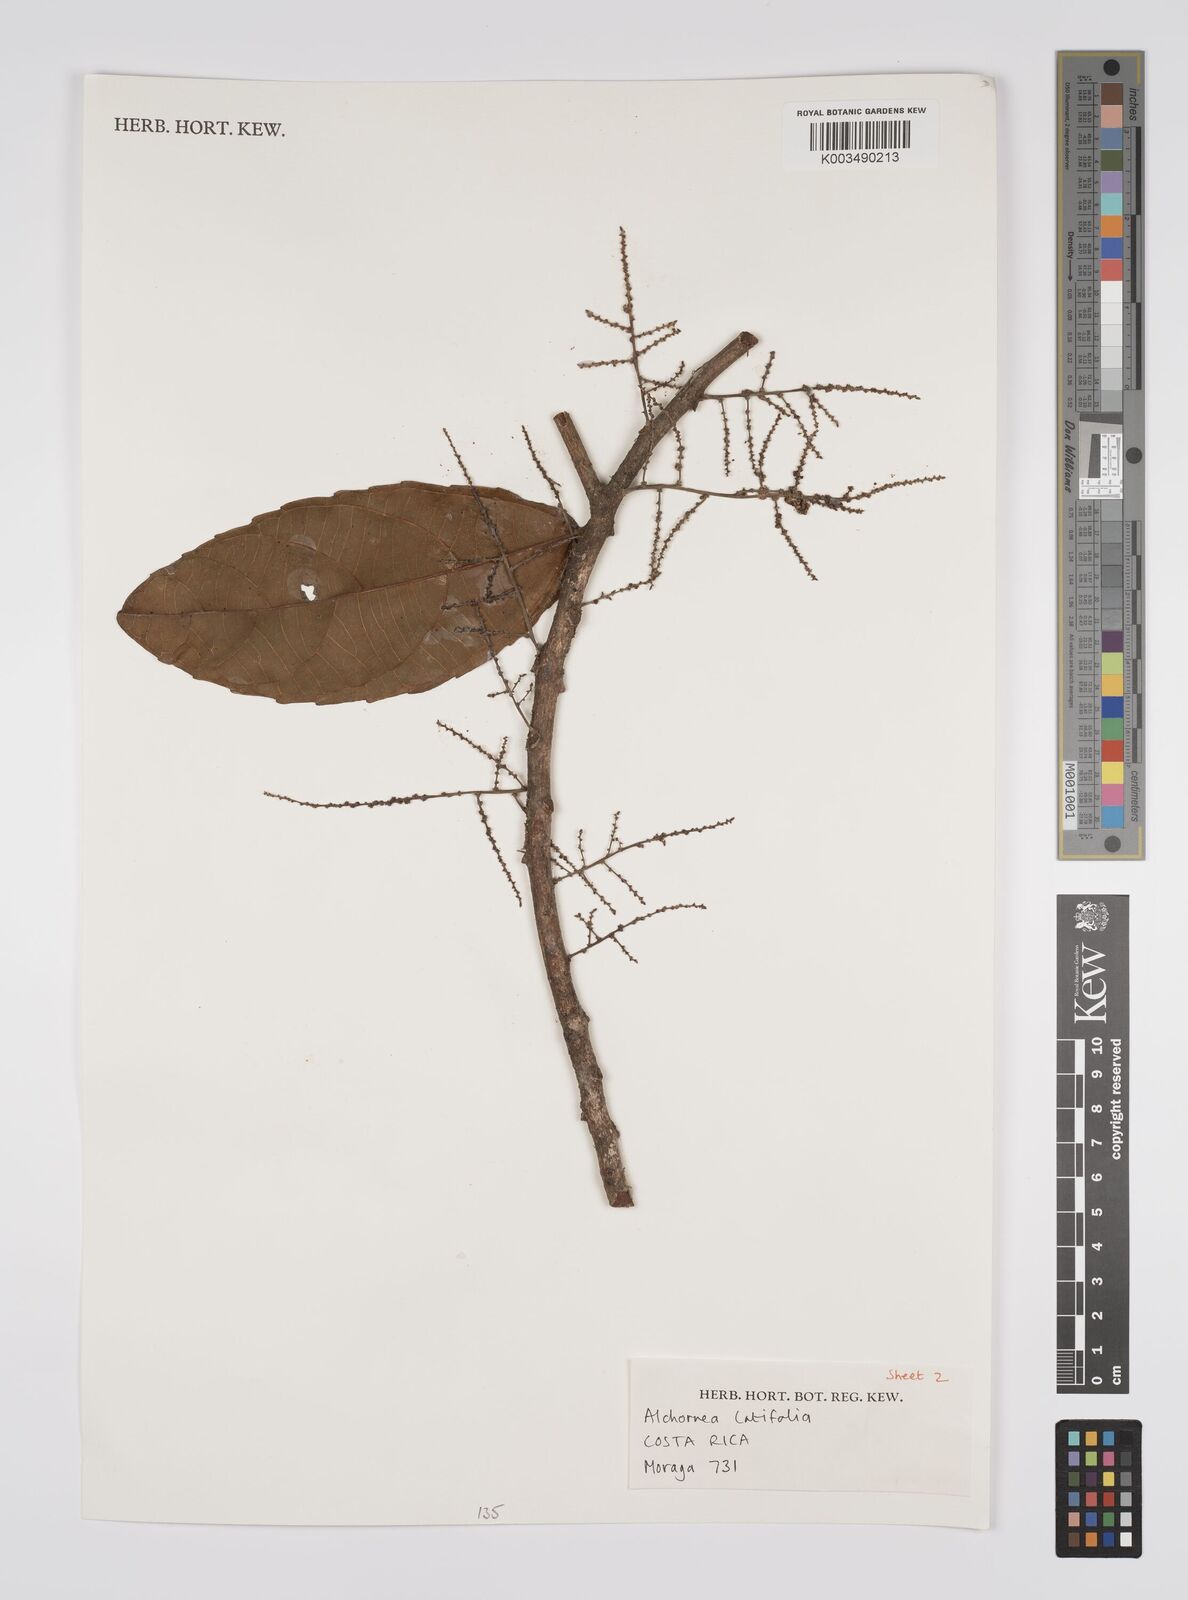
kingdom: Plantae
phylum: Tracheophyta
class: Magnoliopsida
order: Malpighiales
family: Euphorbiaceae
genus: Alchornea
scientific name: Alchornea latifolia
